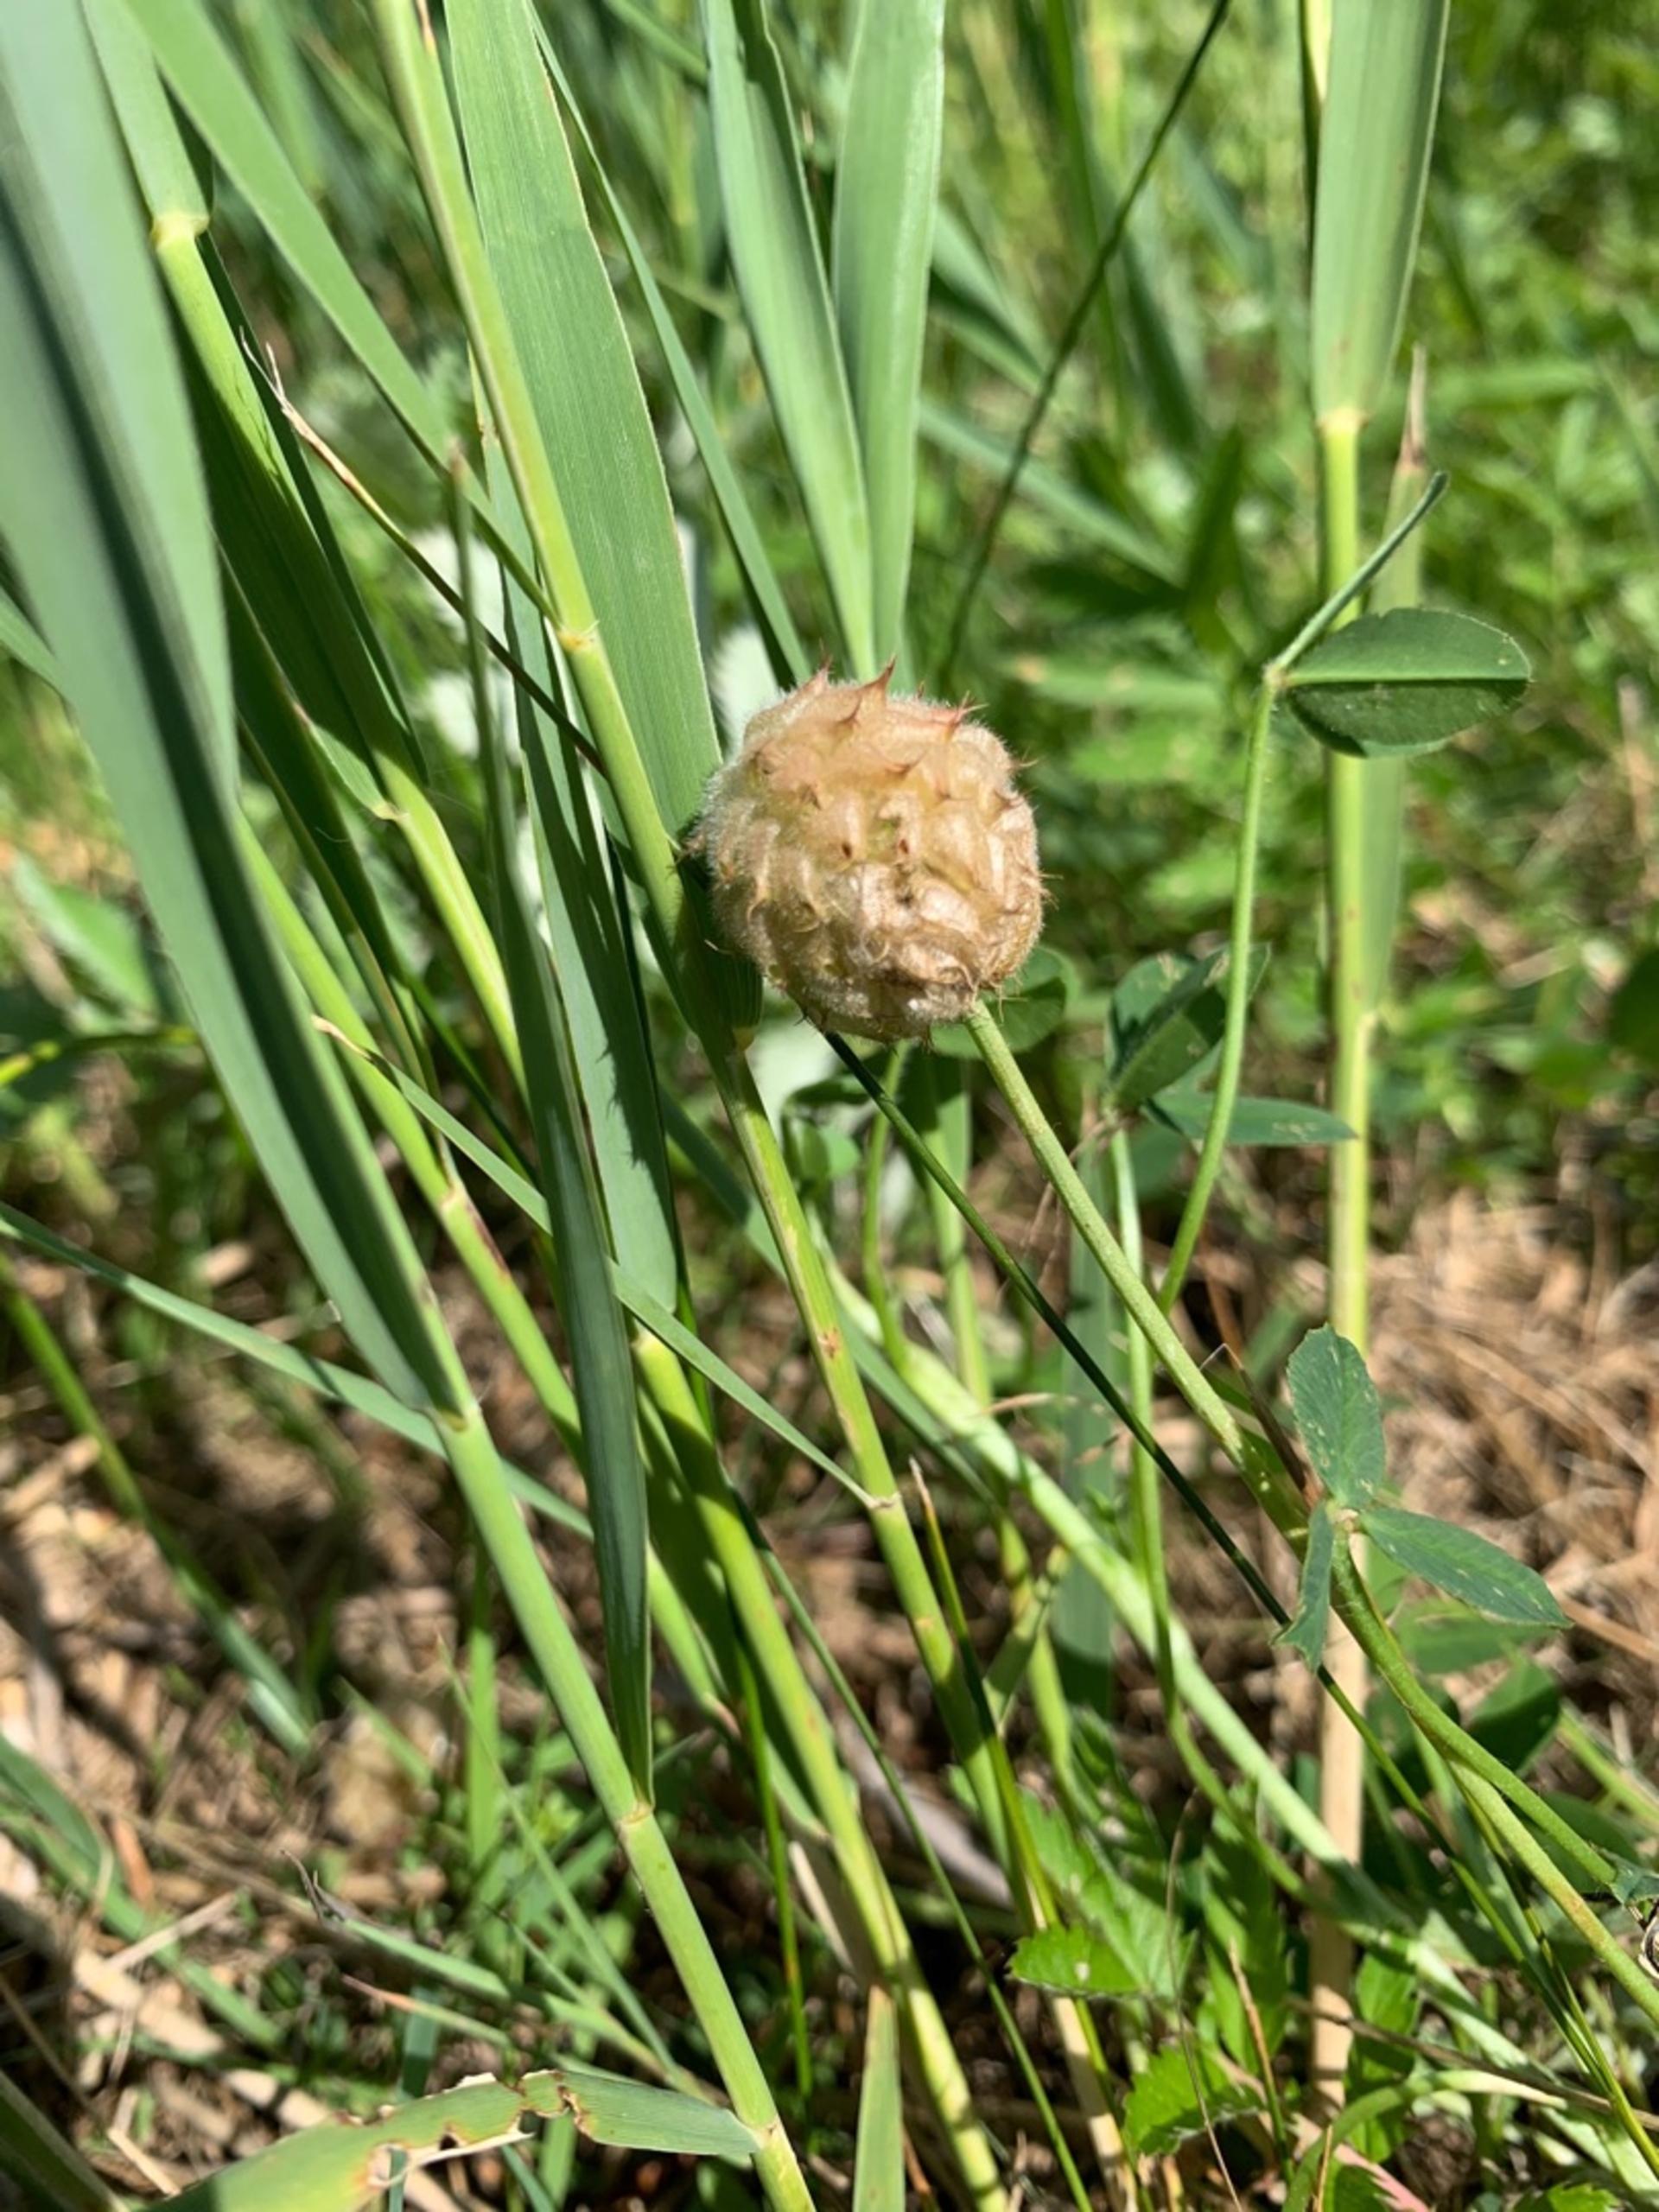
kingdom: Plantae
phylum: Tracheophyta
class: Magnoliopsida
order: Fabales
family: Fabaceae
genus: Trifolium
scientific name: Trifolium fragiferum
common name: Jordbær-kløver
